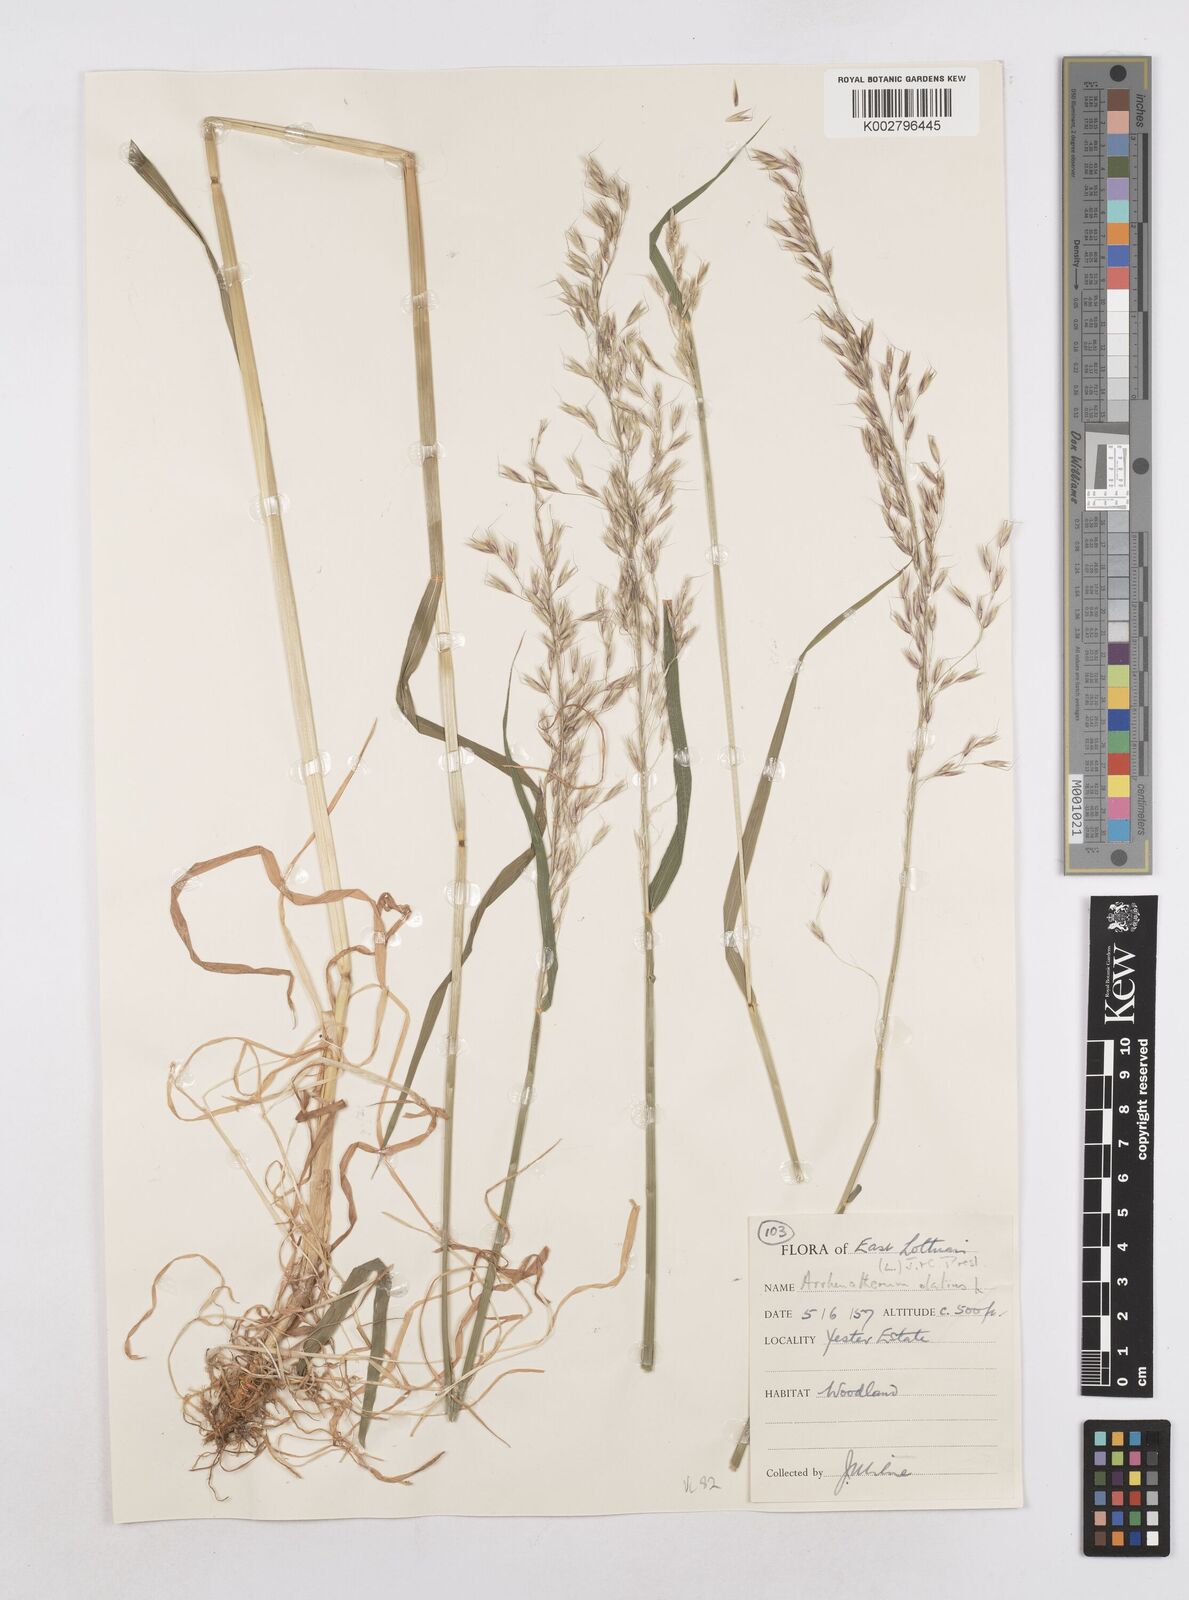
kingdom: Plantae
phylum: Tracheophyta
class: Liliopsida
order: Poales
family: Poaceae
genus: Arrhenatherum
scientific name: Arrhenatherum elatius
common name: Tall oatgrass
